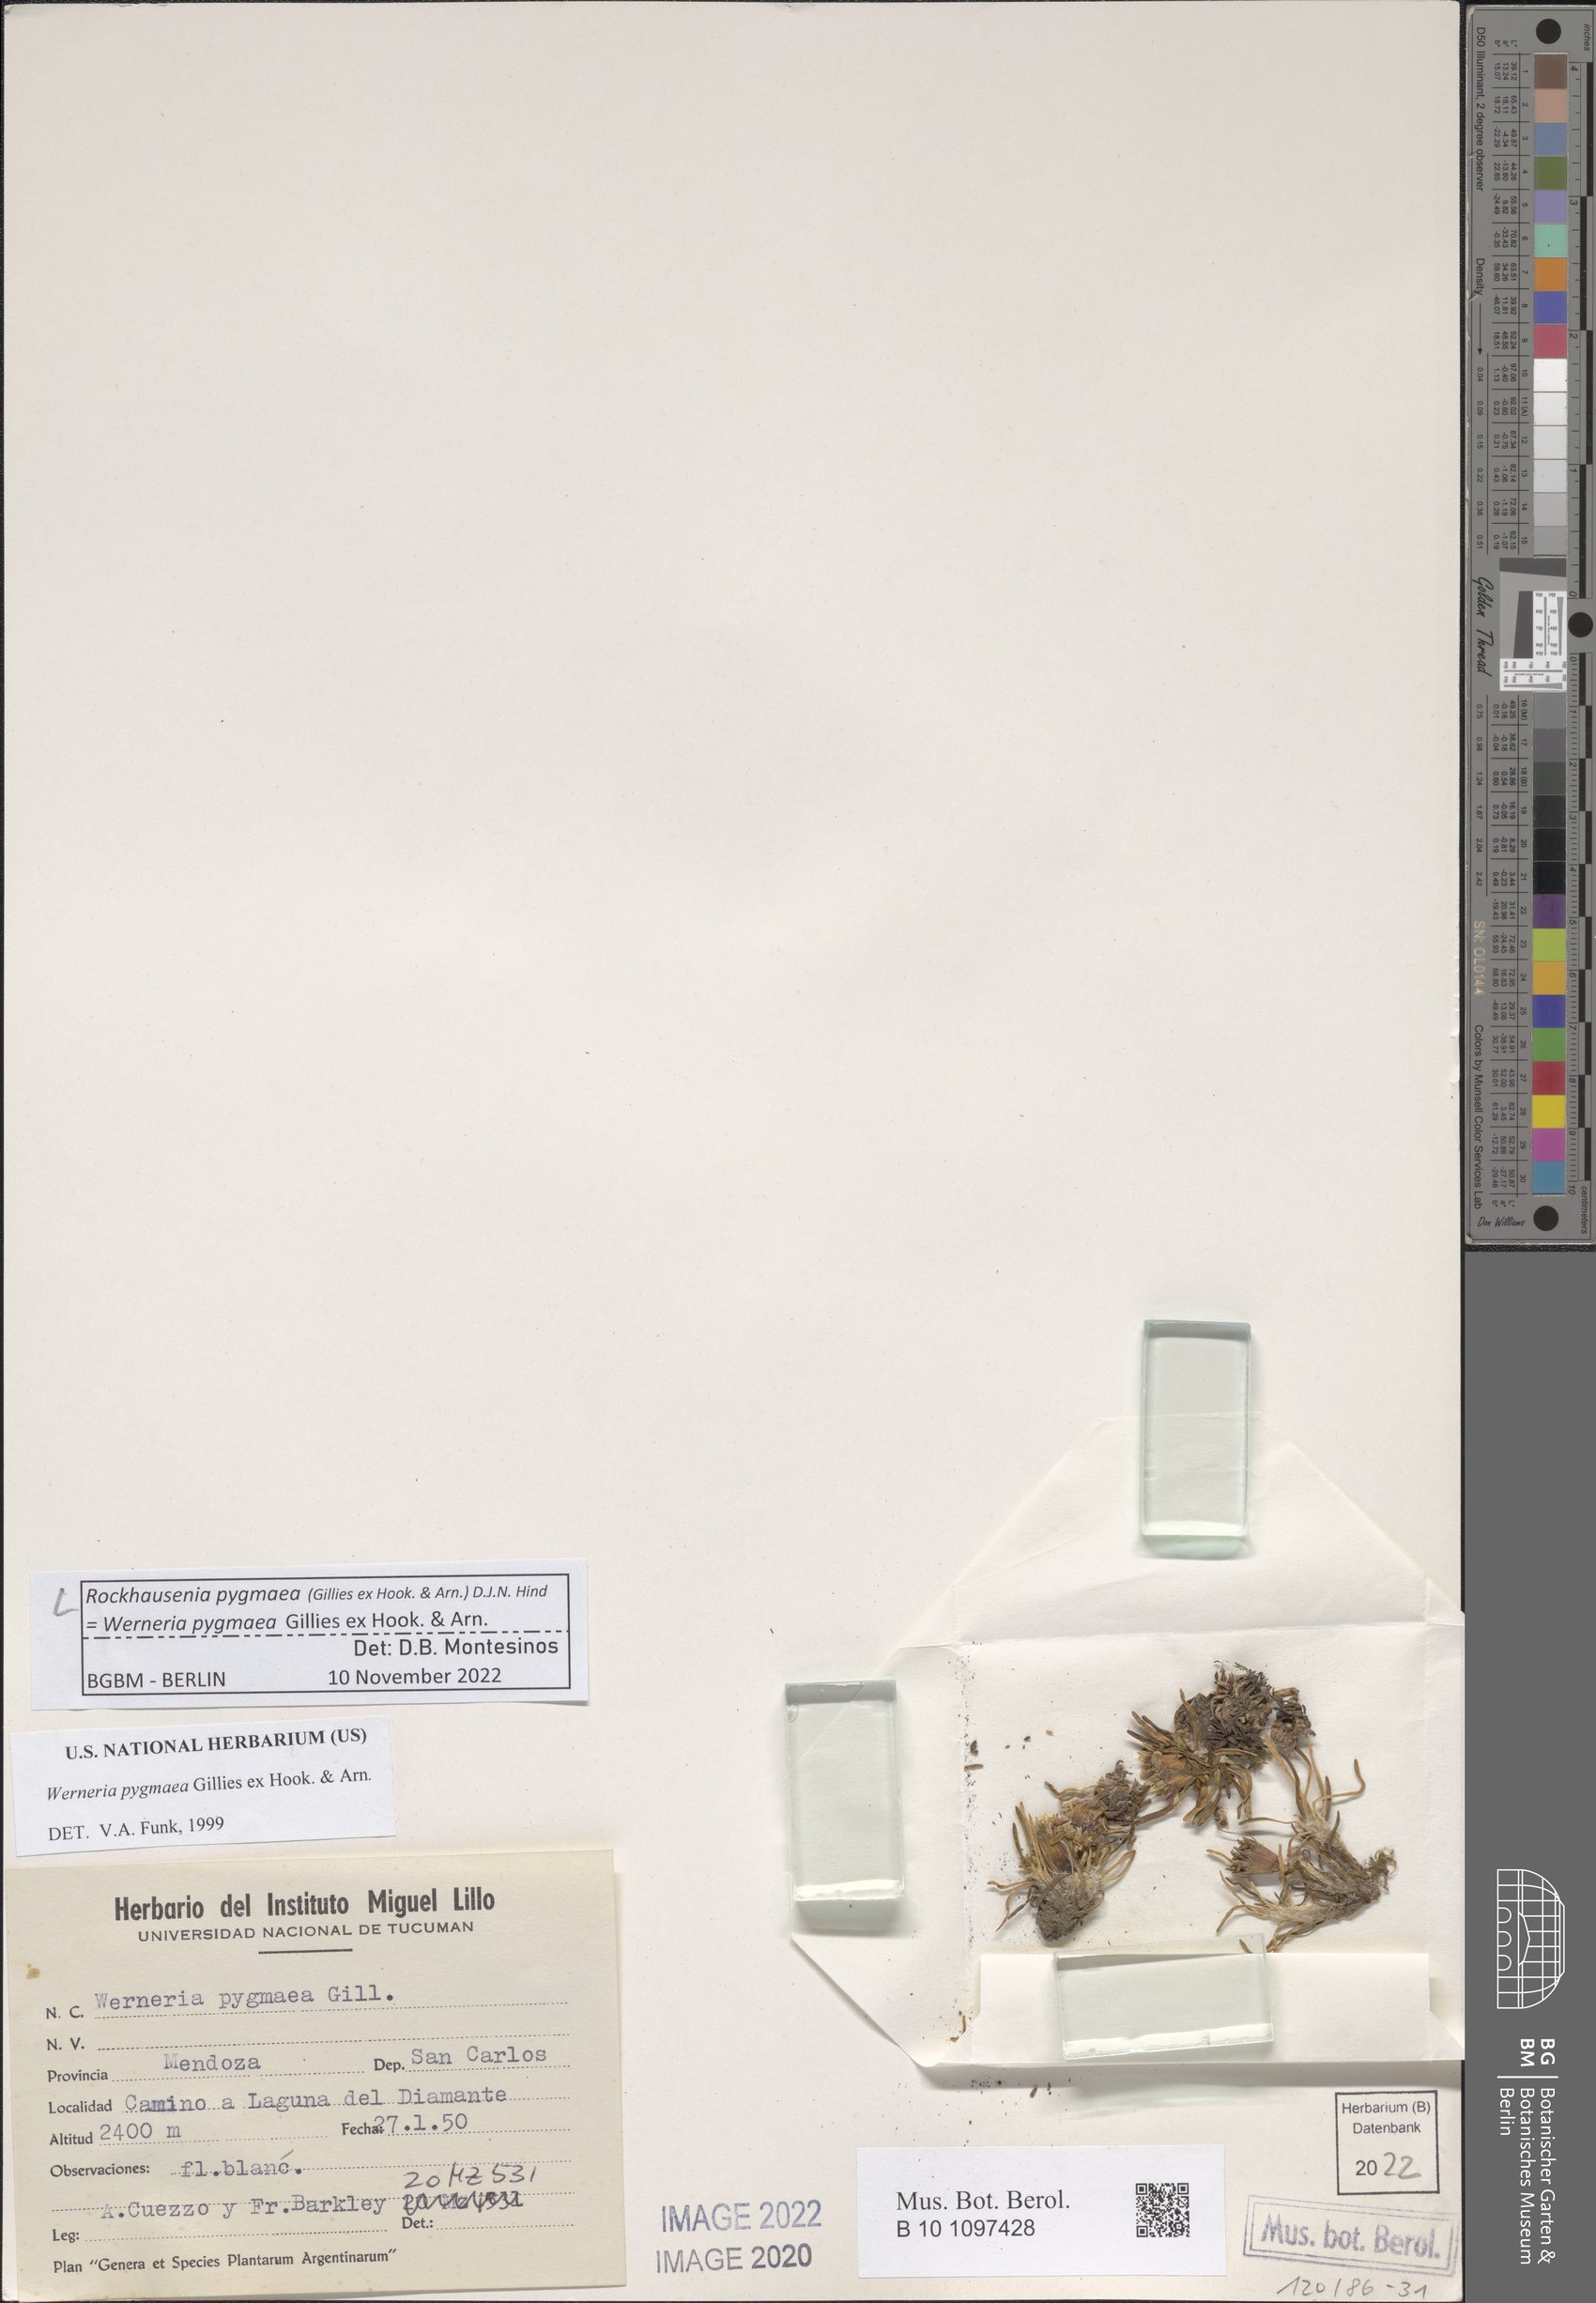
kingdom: Plantae
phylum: Tracheophyta
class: Magnoliopsida
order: Asterales
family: Asteraceae
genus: Rockhausenia
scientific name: Rockhausenia pygmaea
